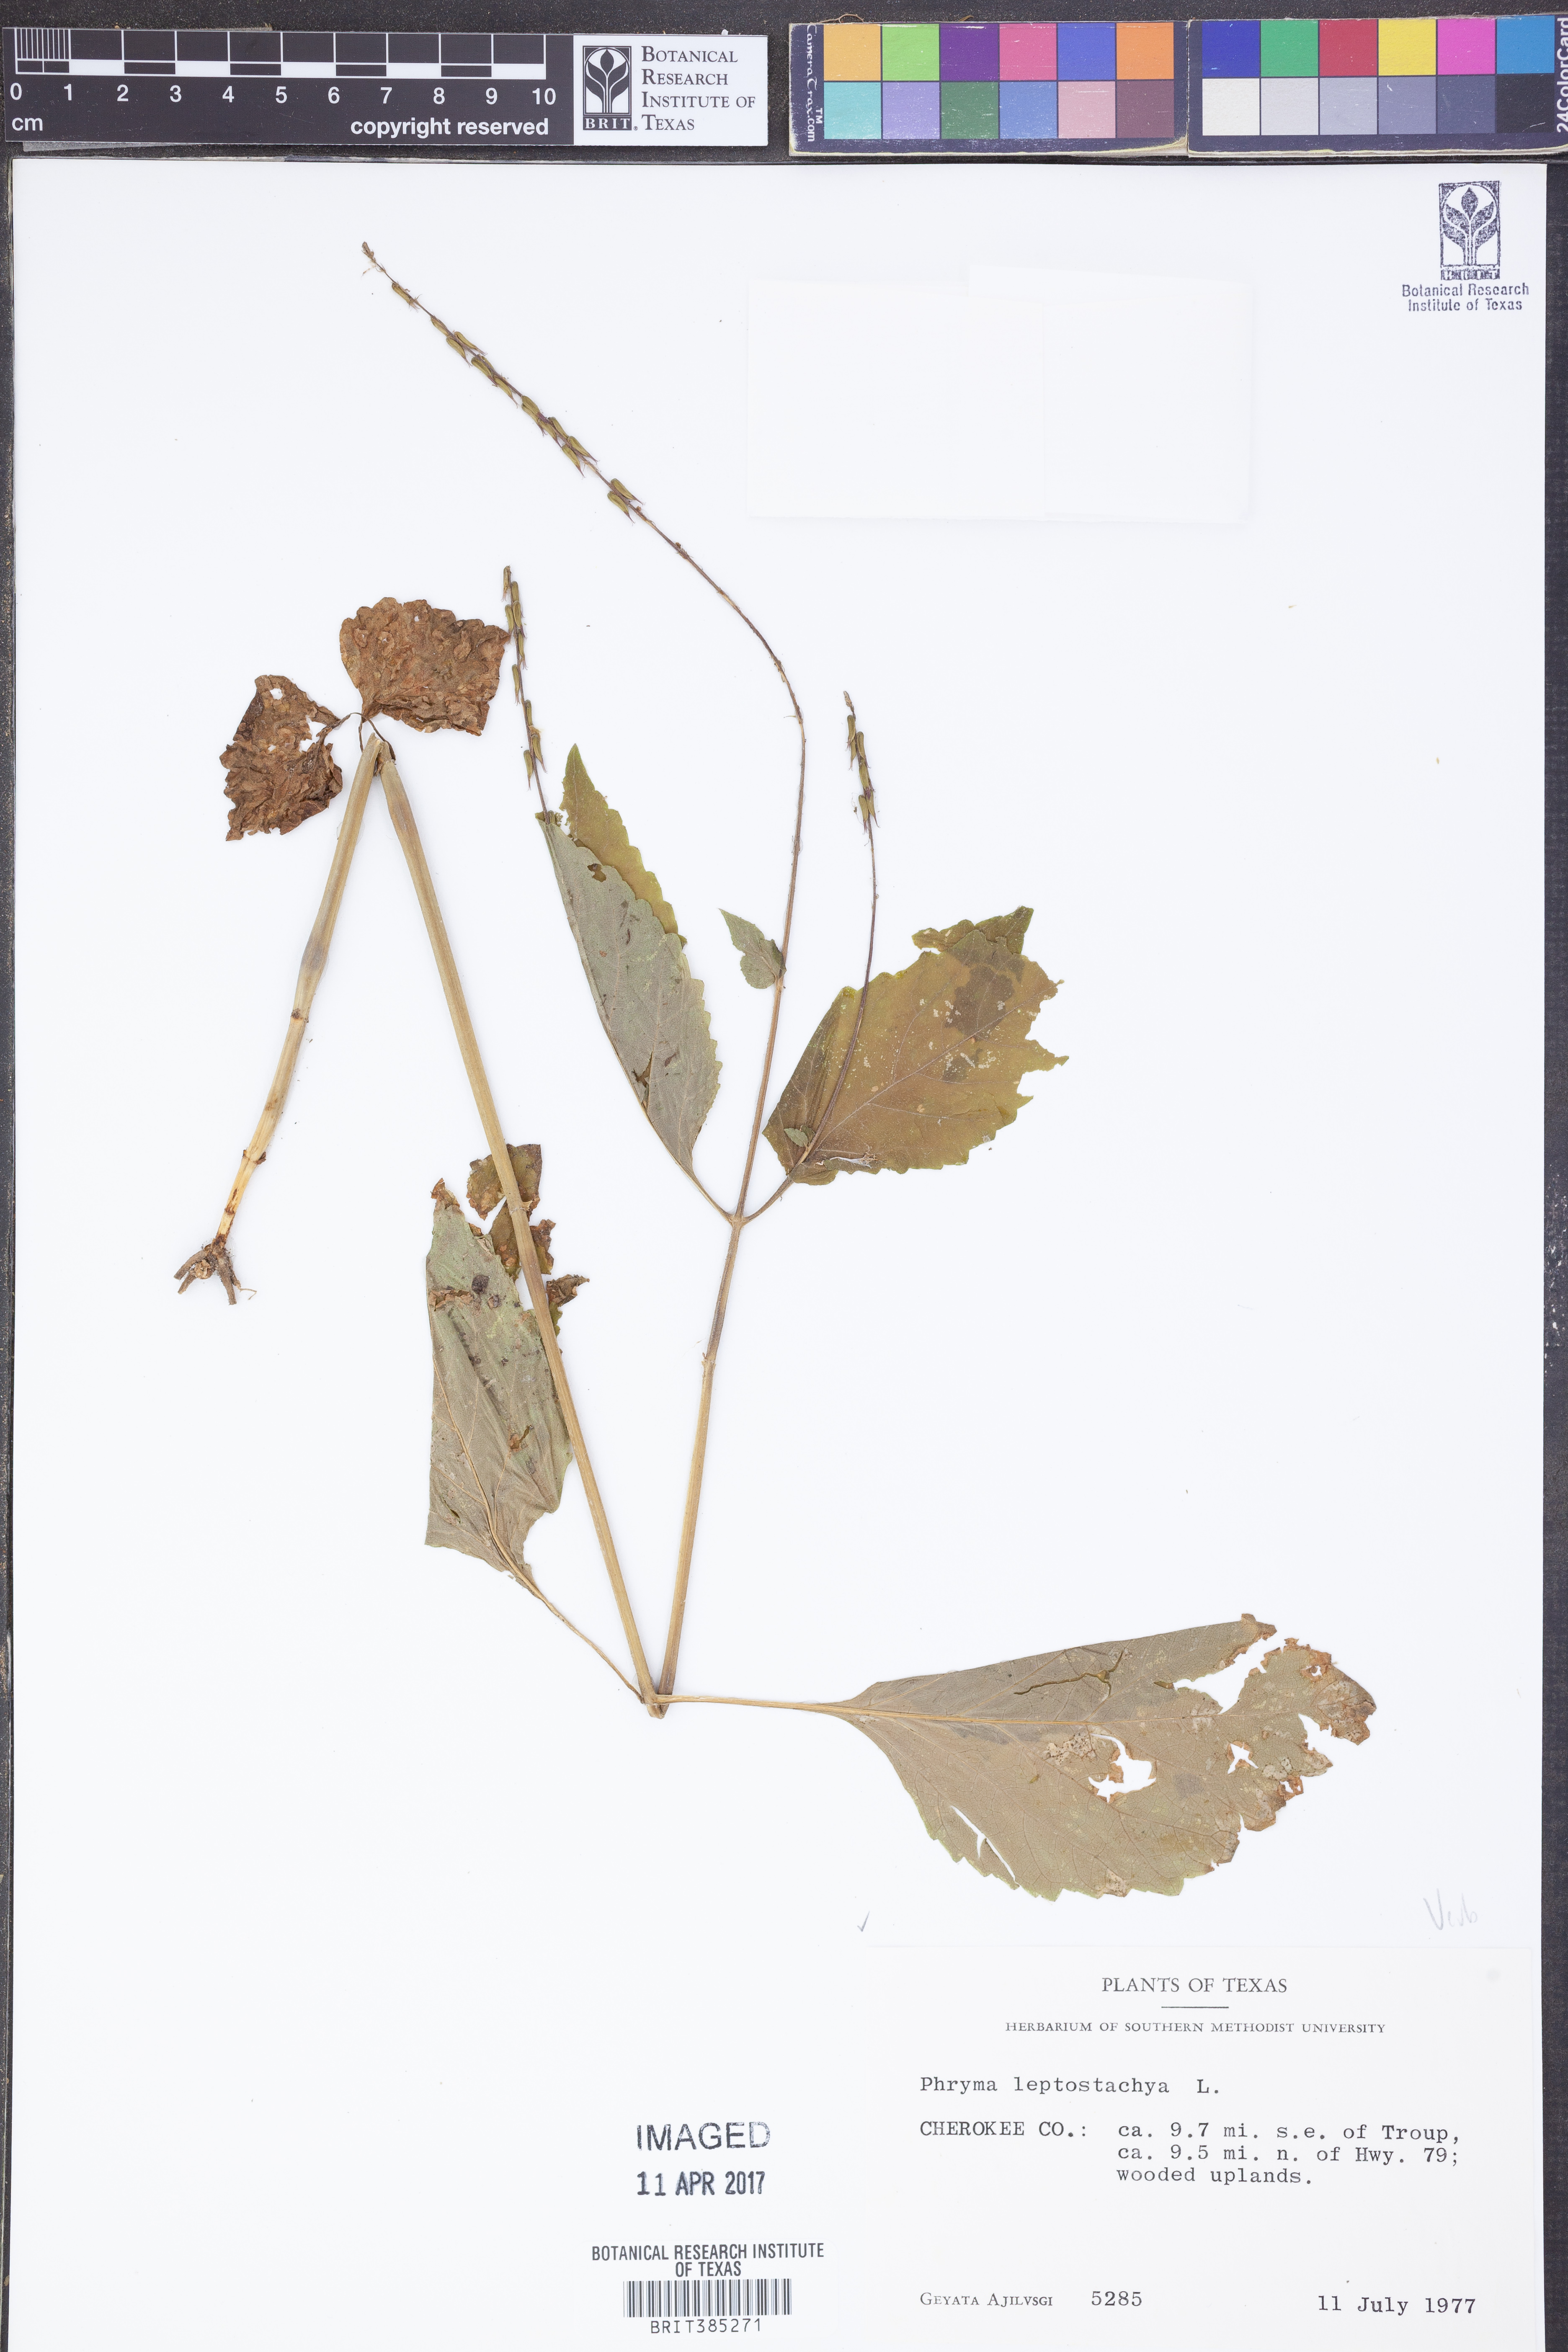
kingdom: Plantae
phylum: Tracheophyta
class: Magnoliopsida
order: Lamiales
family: Phrymaceae
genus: Phryma
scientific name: Phryma leptostachya
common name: American lopseed
